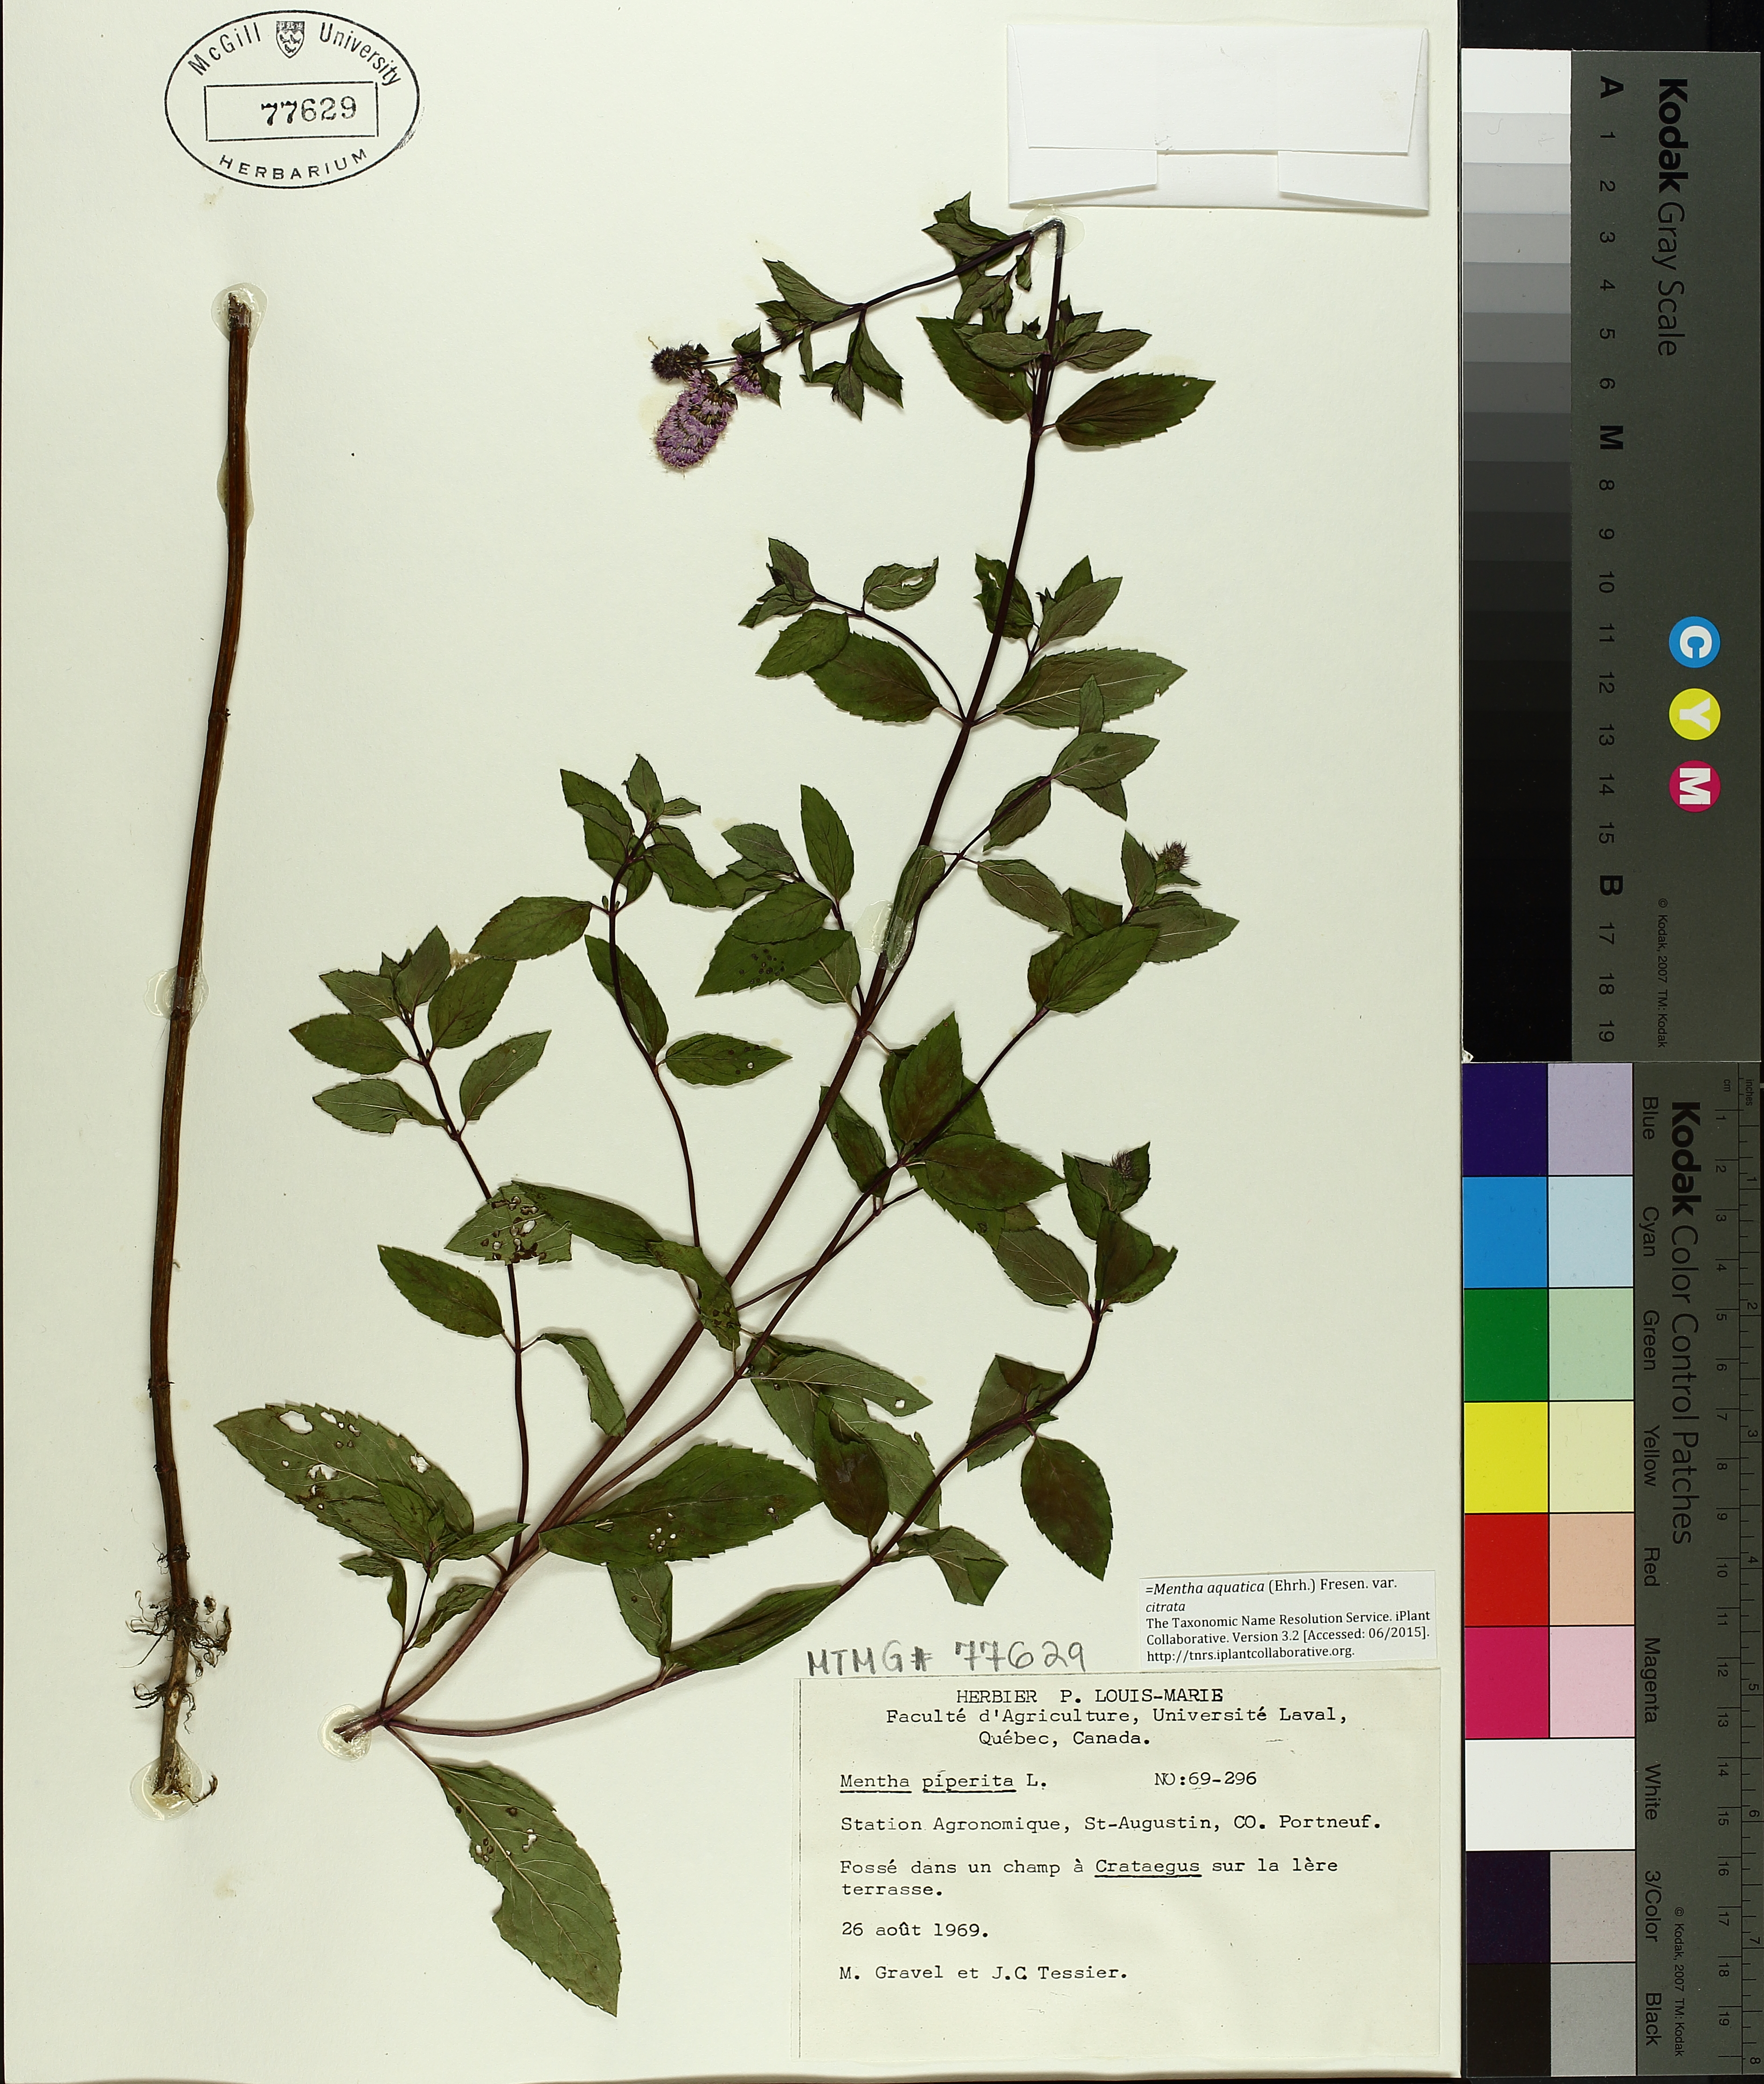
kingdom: Plantae
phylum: Tracheophyta
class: Magnoliopsida
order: Lamiales
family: Lamiaceae
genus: Mentha
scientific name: Mentha piperita
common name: Peppermint
